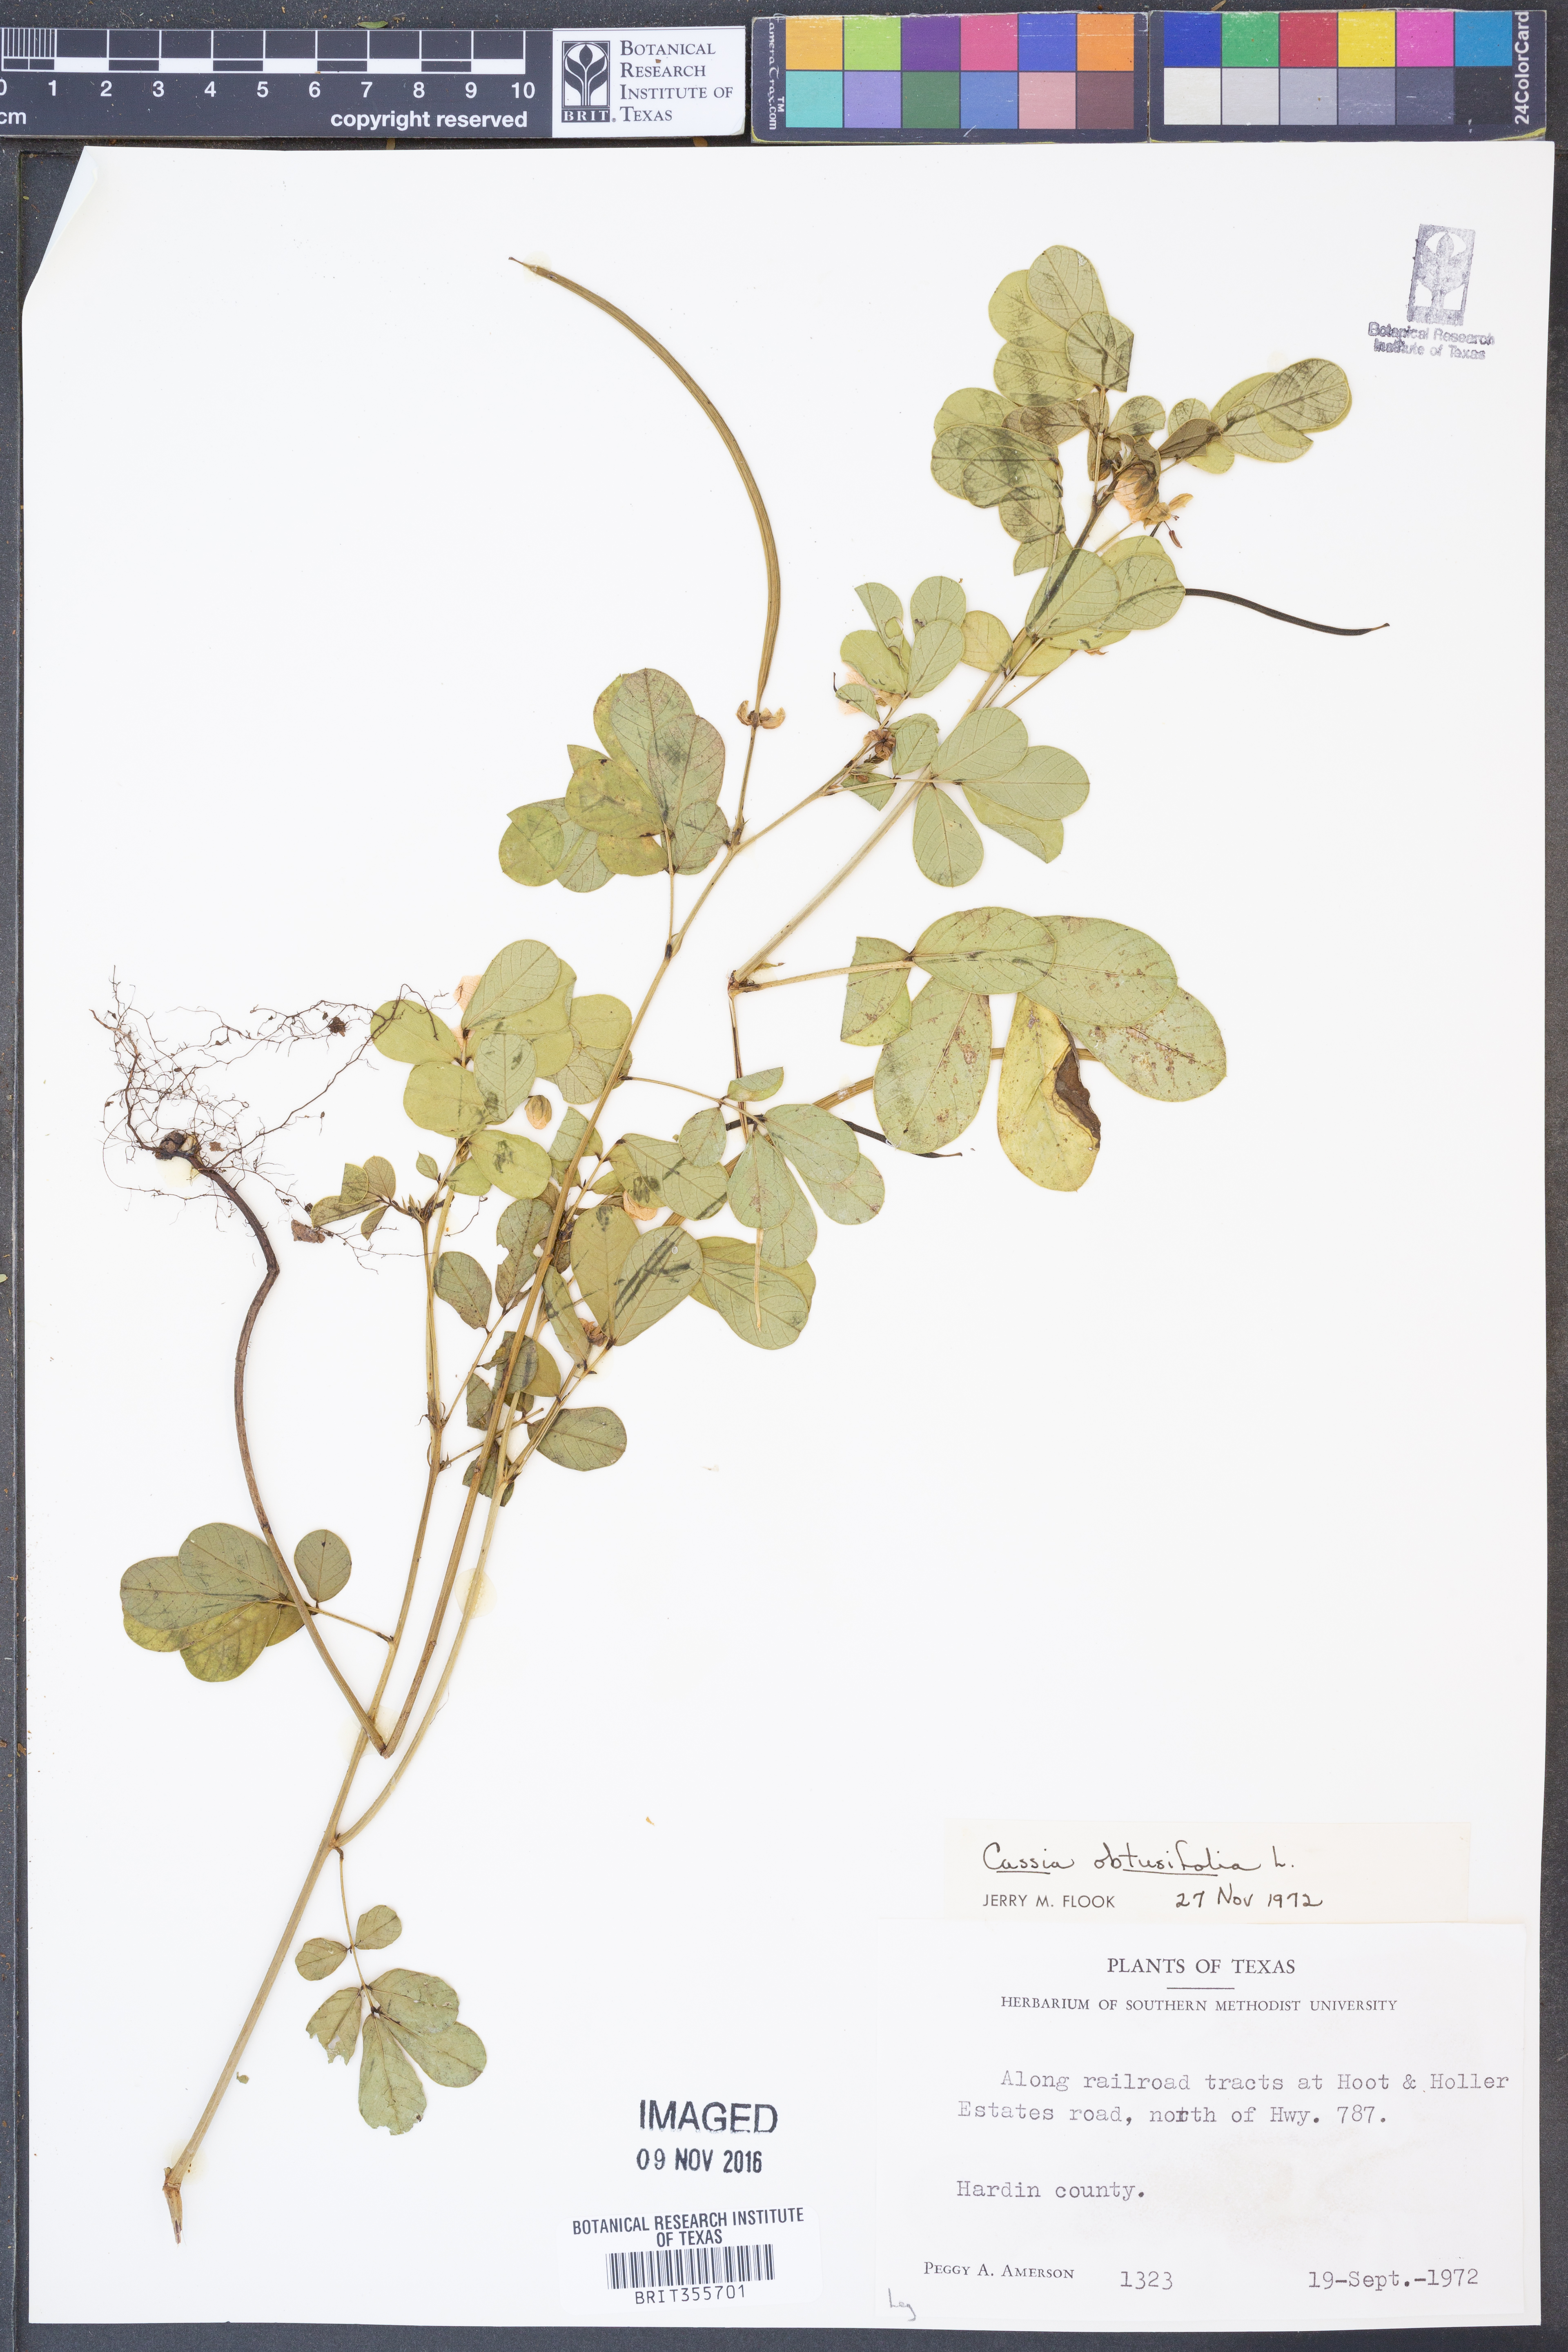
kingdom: Plantae
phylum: Tracheophyta
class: Magnoliopsida
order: Fabales
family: Fabaceae
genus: Senna
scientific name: Senna obtusifolia
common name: Java-bean
